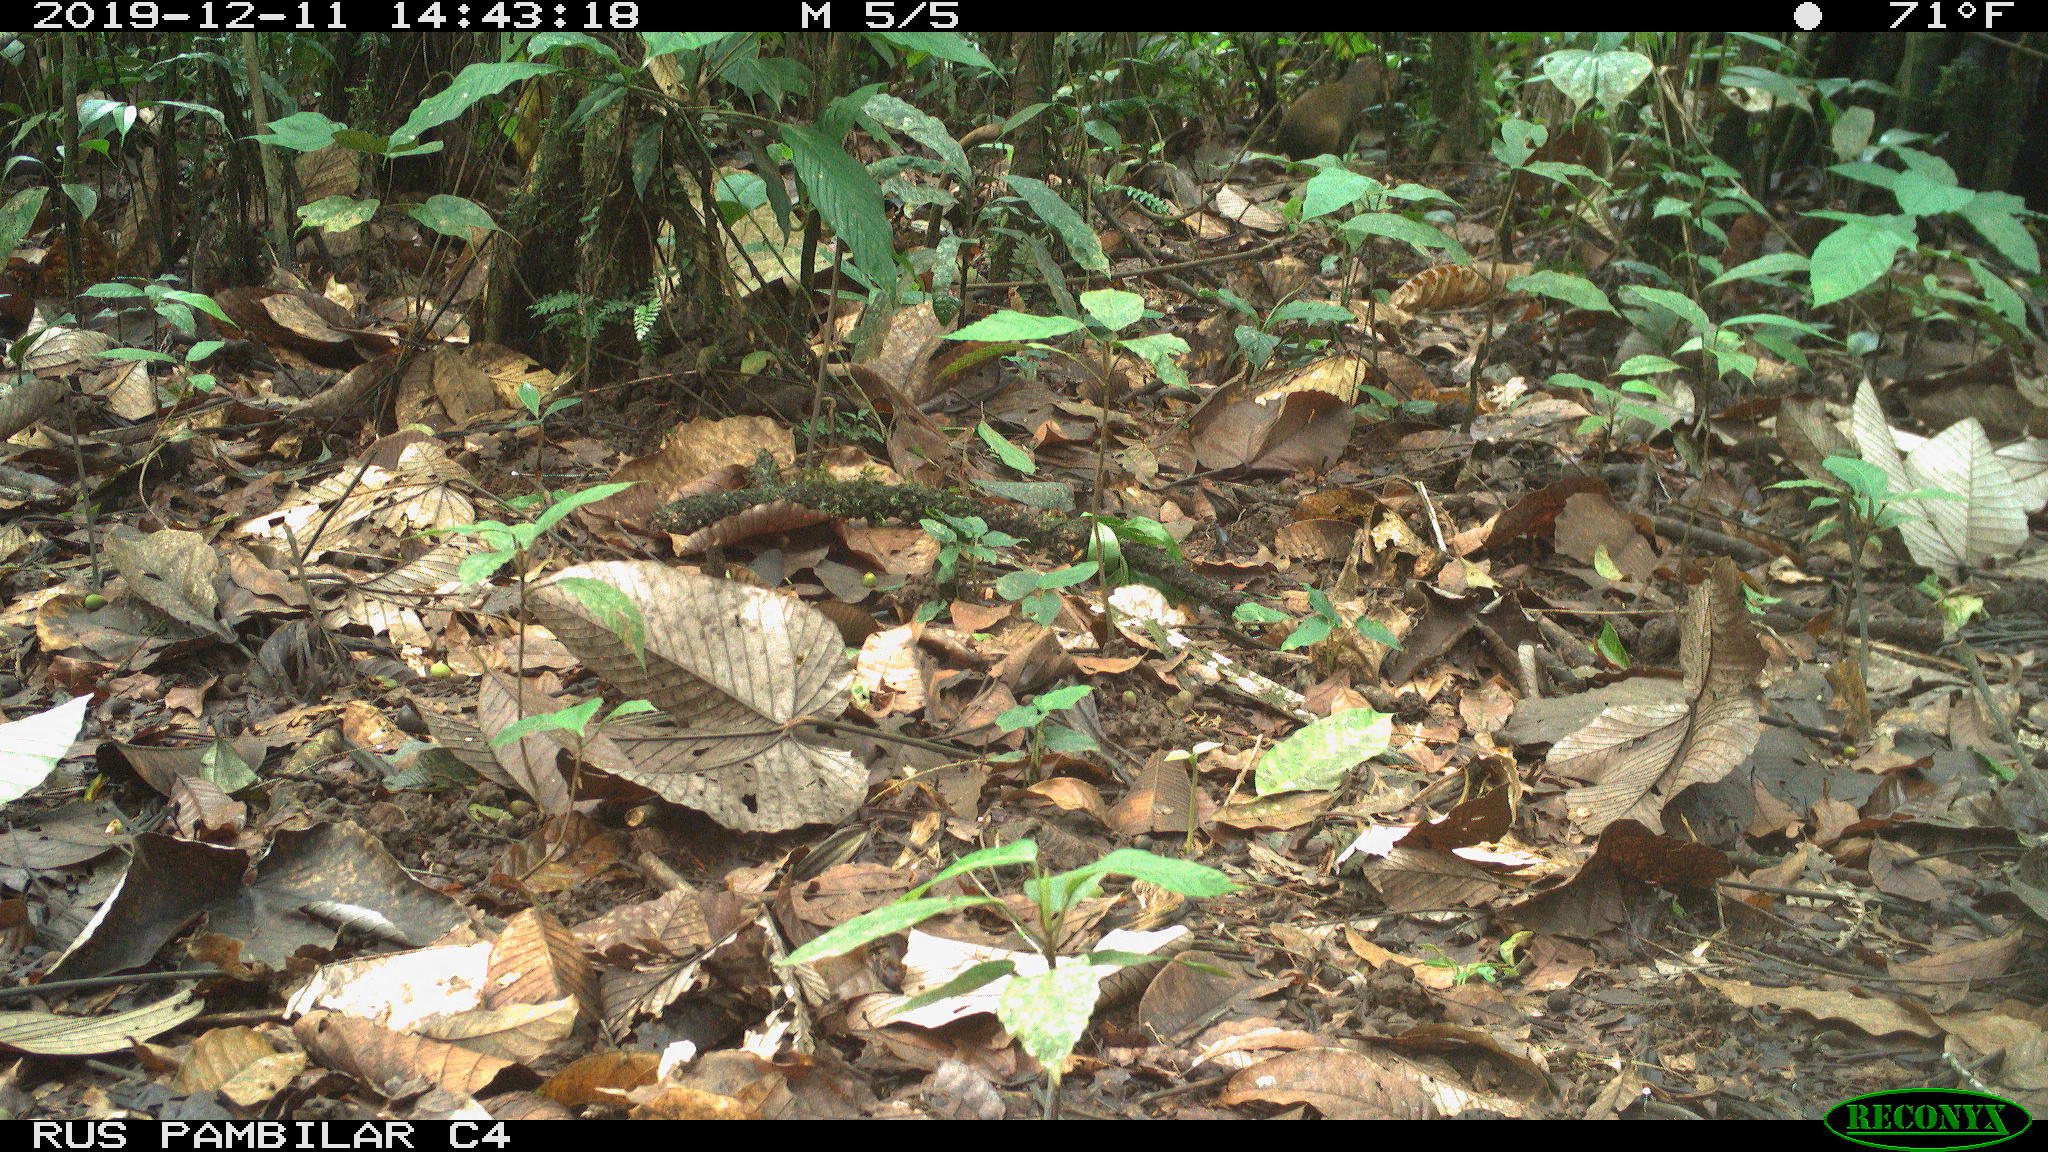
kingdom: Animalia
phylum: Chordata
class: Mammalia
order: Rodentia
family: Dasyproctidae
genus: Dasyprocta
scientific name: Dasyprocta punctata
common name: Central american agouti
